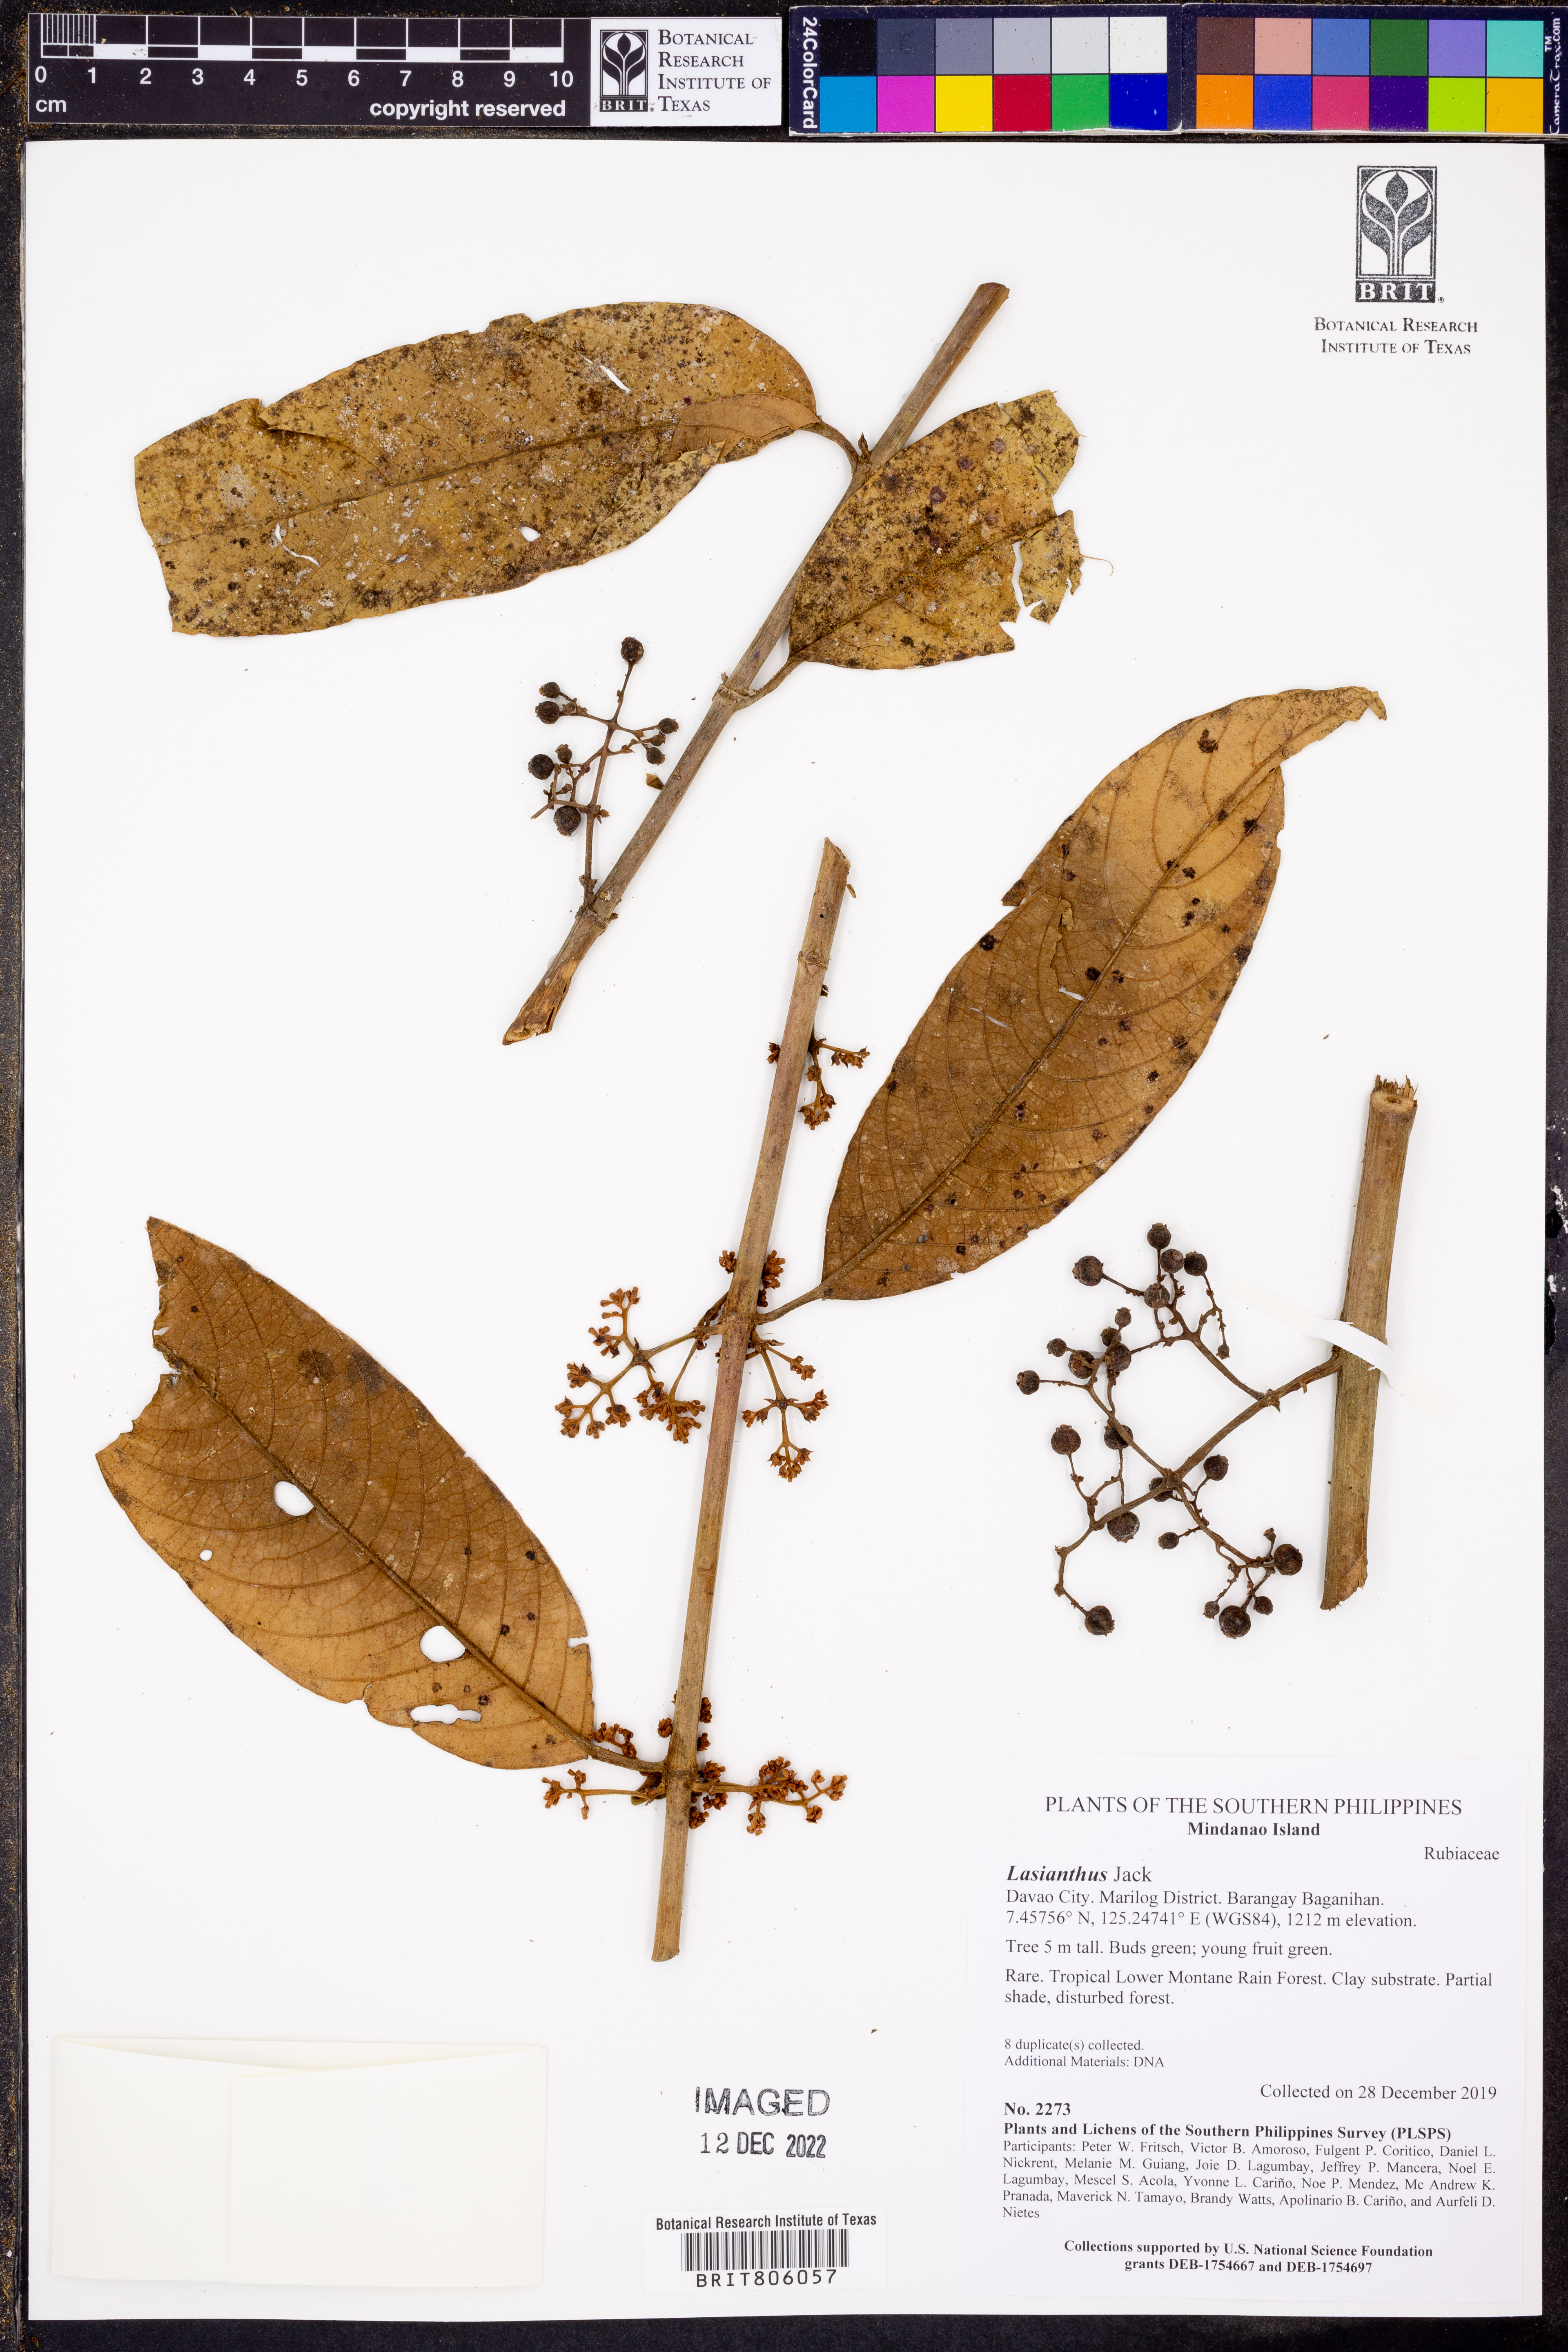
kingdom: Plantae
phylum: Tracheophyta
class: Magnoliopsida
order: Gentianales
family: Rubiaceae
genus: Lasianthus
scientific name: Lasianthus
